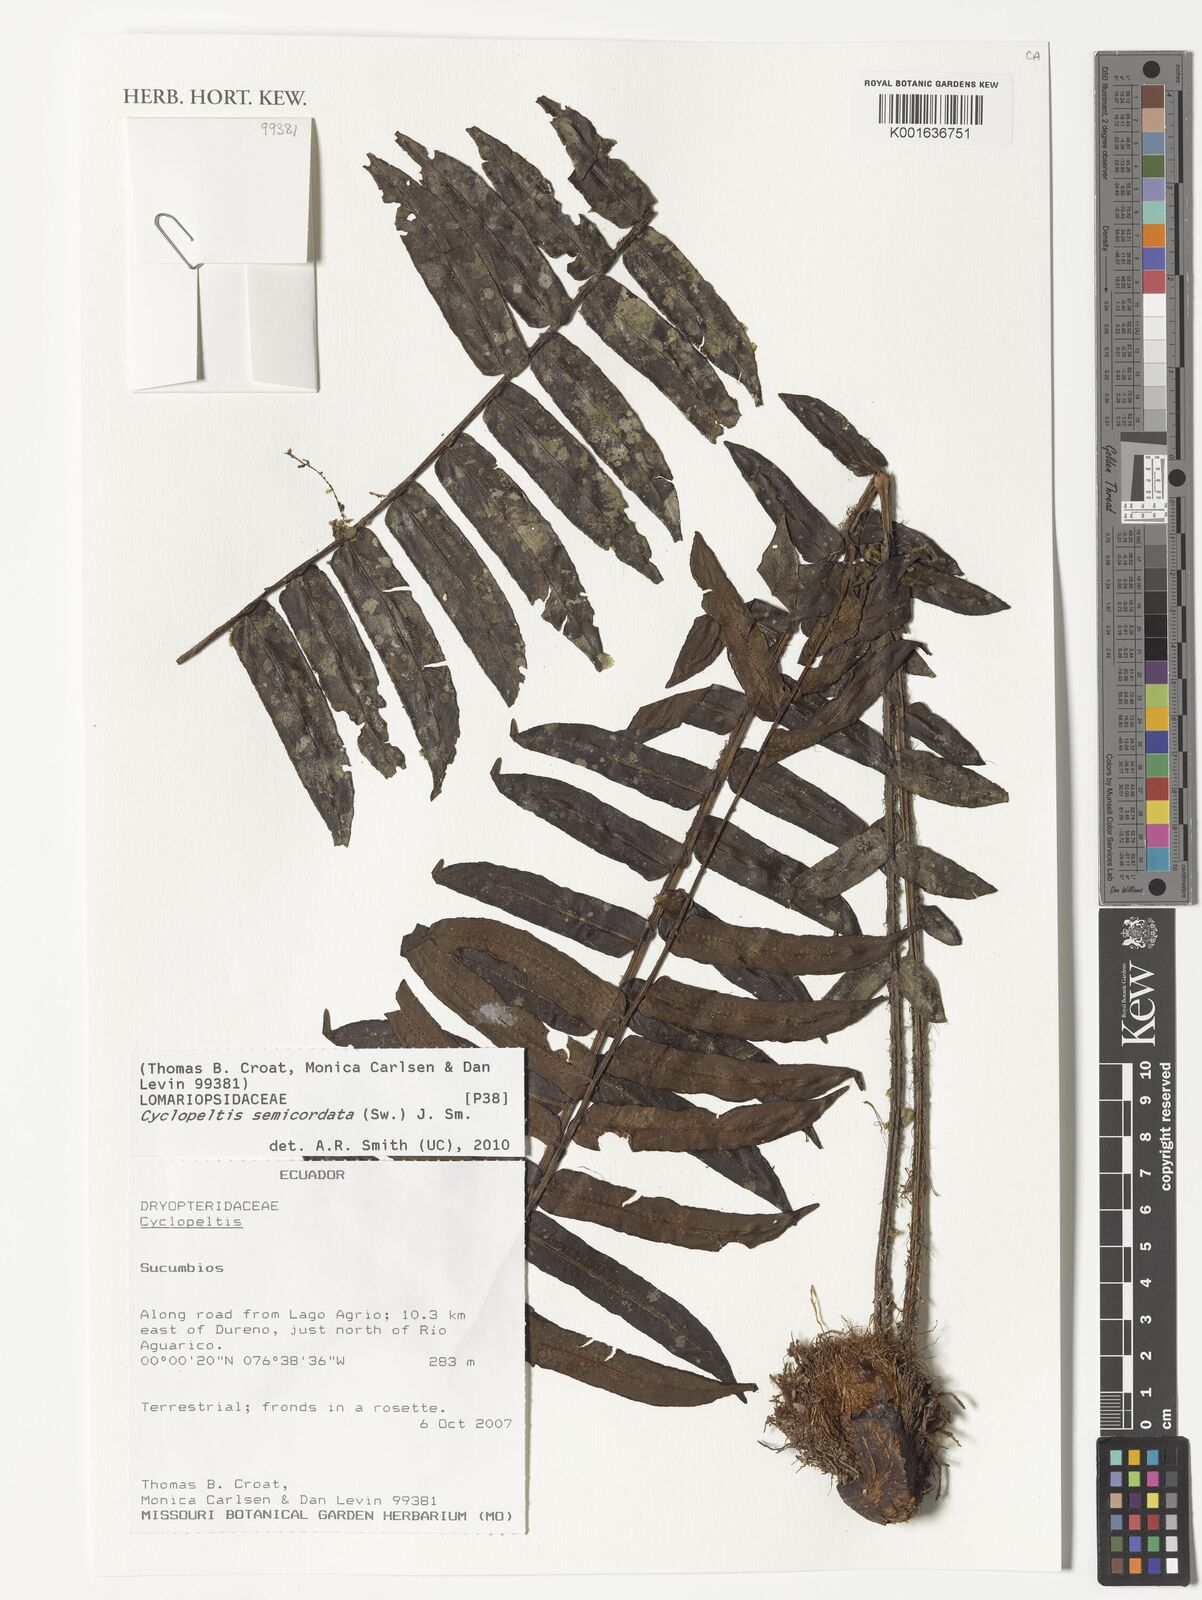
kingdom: Plantae
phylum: Tracheophyta
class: Polypodiopsida
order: Polypodiales
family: Lomariopsidaceae
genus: Cyclopeltis
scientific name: Cyclopeltis semicordata
